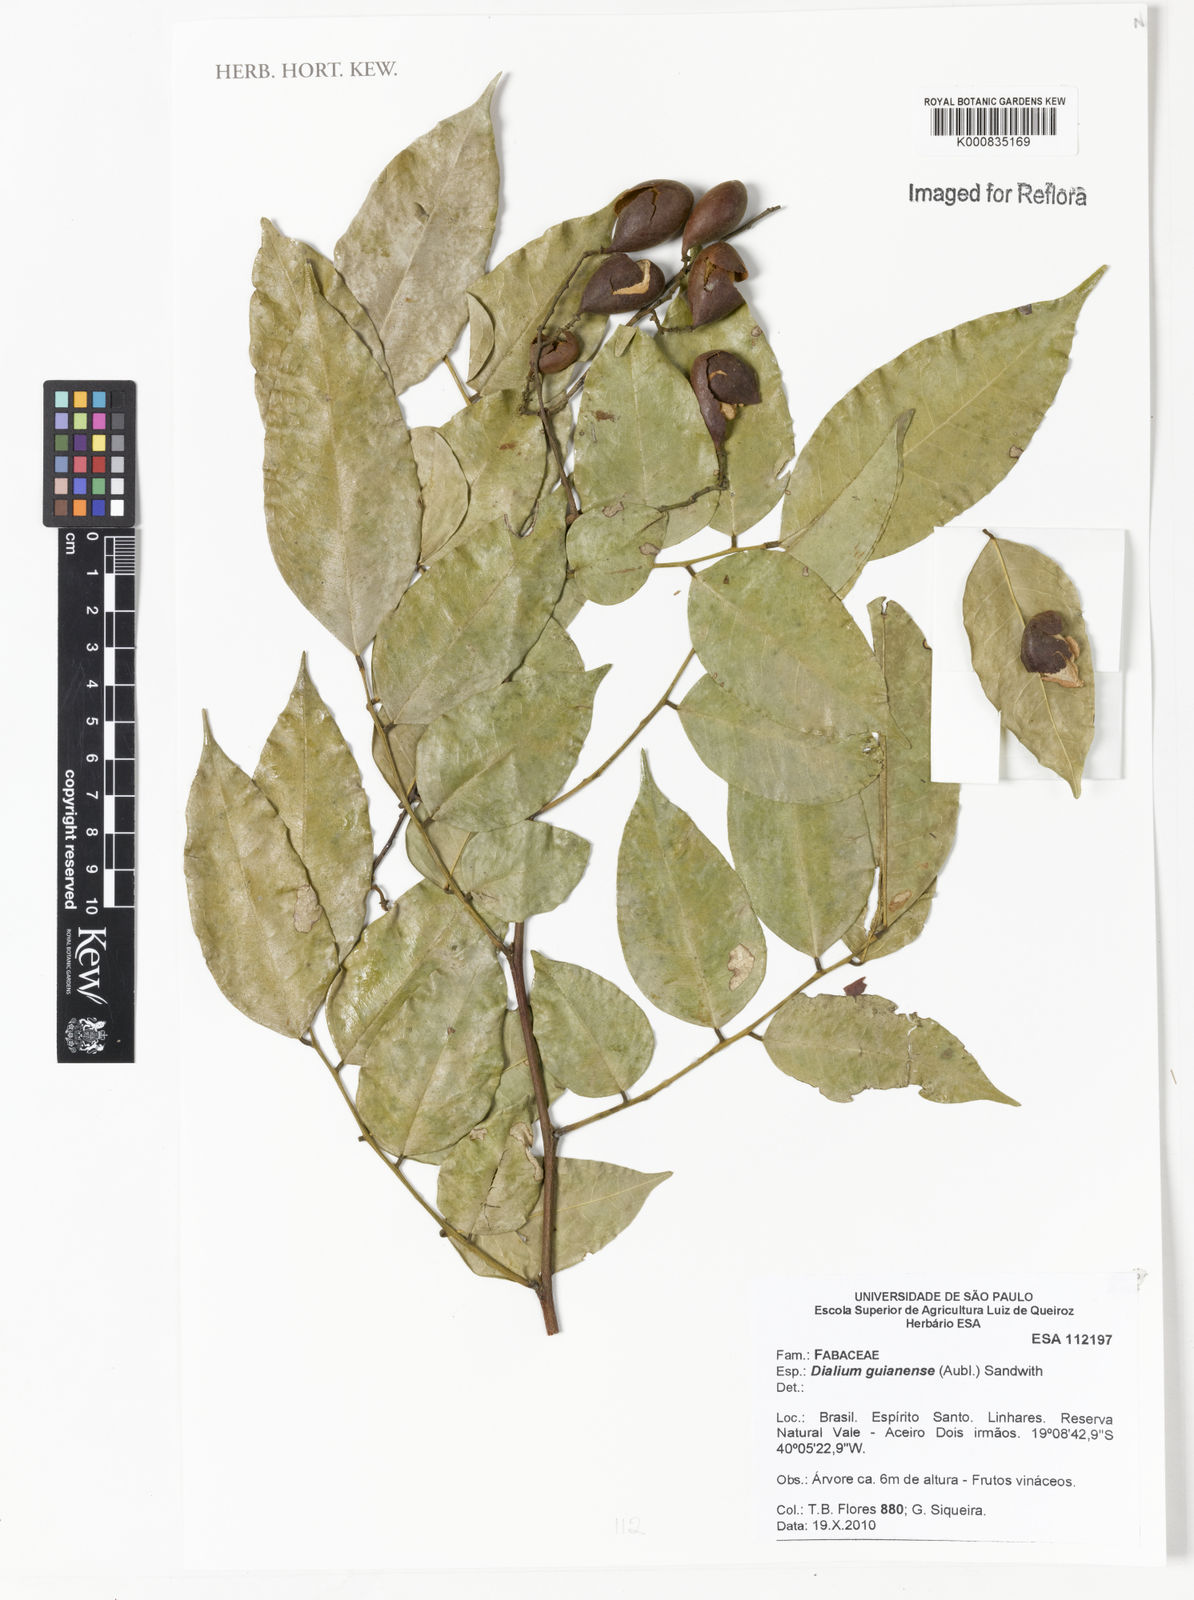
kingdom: Plantae
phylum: Tracheophyta
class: Magnoliopsida
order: Fabales
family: Fabaceae
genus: Dialium
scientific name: Dialium guianense
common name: Ironwood
